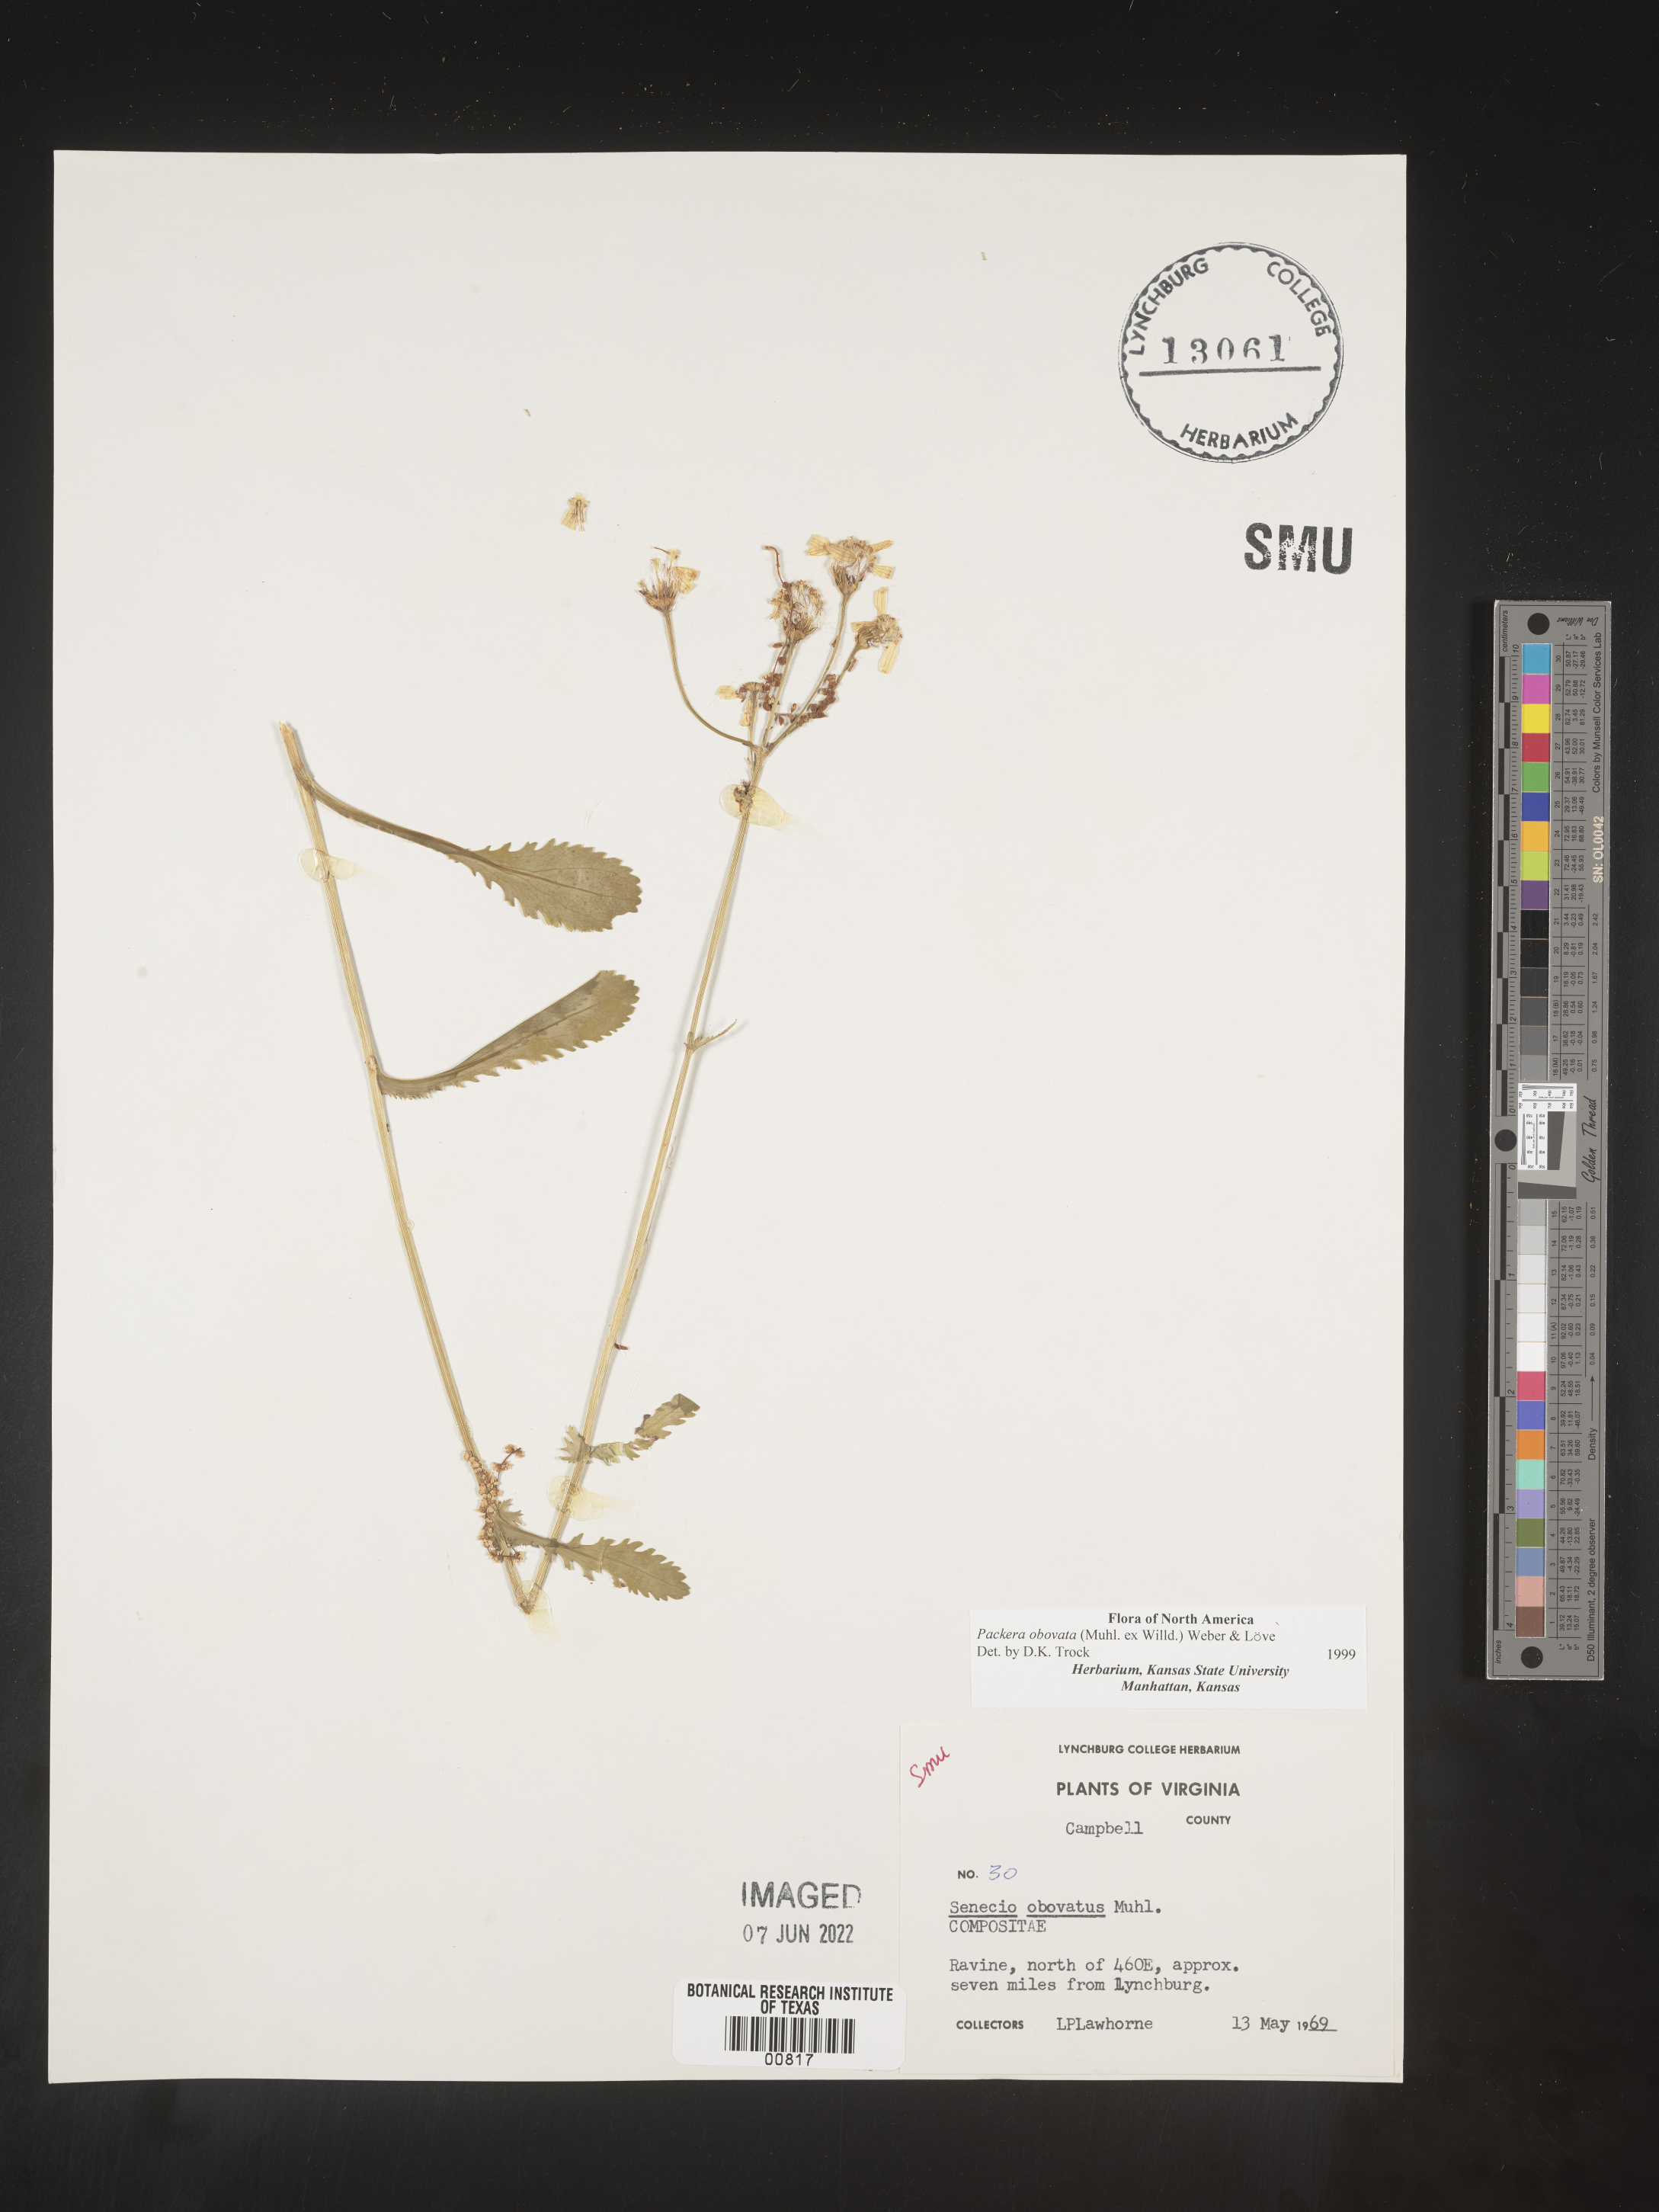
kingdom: Plantae
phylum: Tracheophyta
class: Magnoliopsida
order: Asterales
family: Asteraceae
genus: Packera
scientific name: Packera obovata
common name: Round-leaf ragwort
